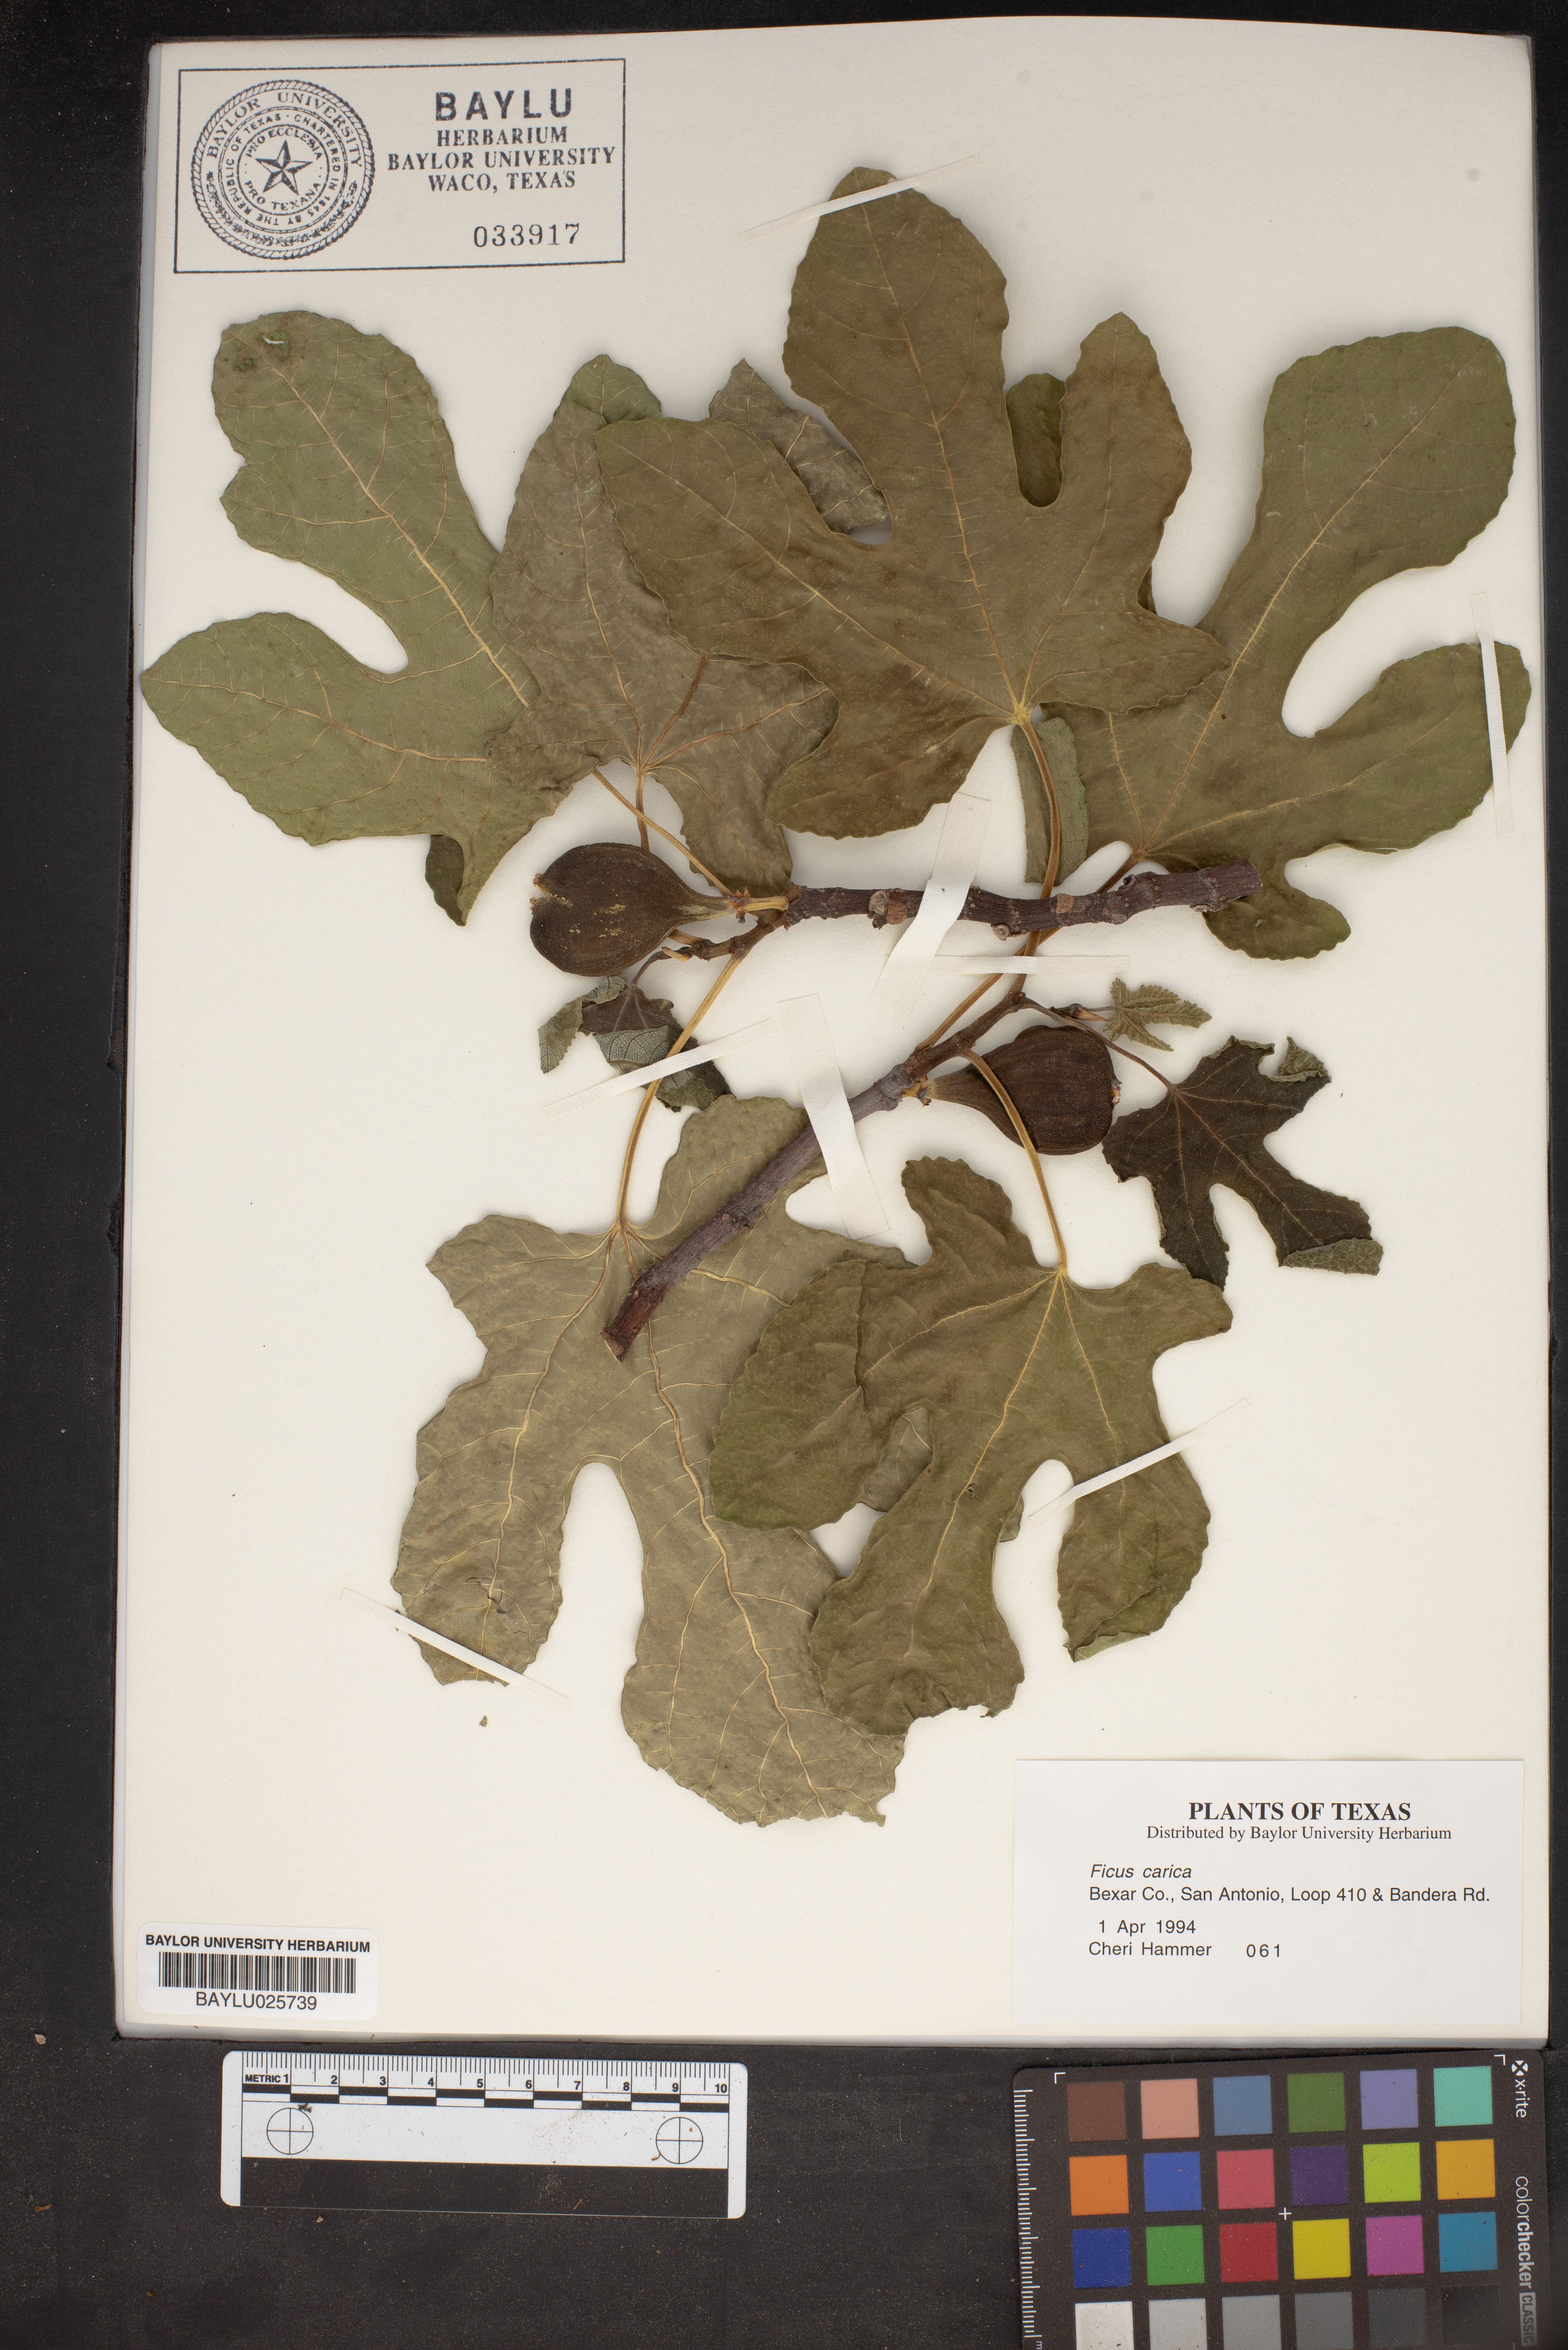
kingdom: Plantae
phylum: Tracheophyta
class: Magnoliopsida
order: Rosales
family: Moraceae
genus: Ficus
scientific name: Ficus carica
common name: Fig
